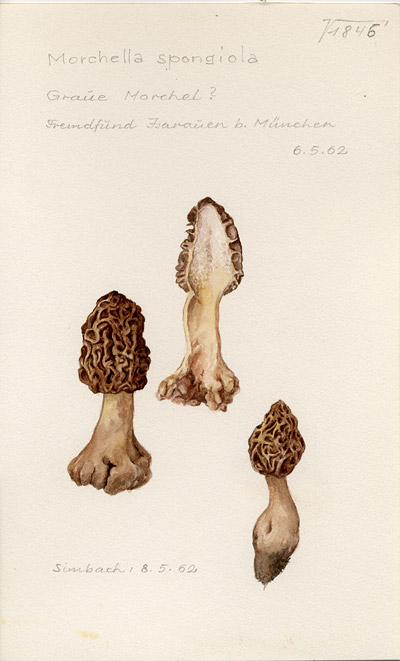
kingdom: Fungi
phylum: Ascomycota
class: Pezizomycetes
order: Pezizales
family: Morchellaceae
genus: Morchella
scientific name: Morchella esculenta
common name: Morel
